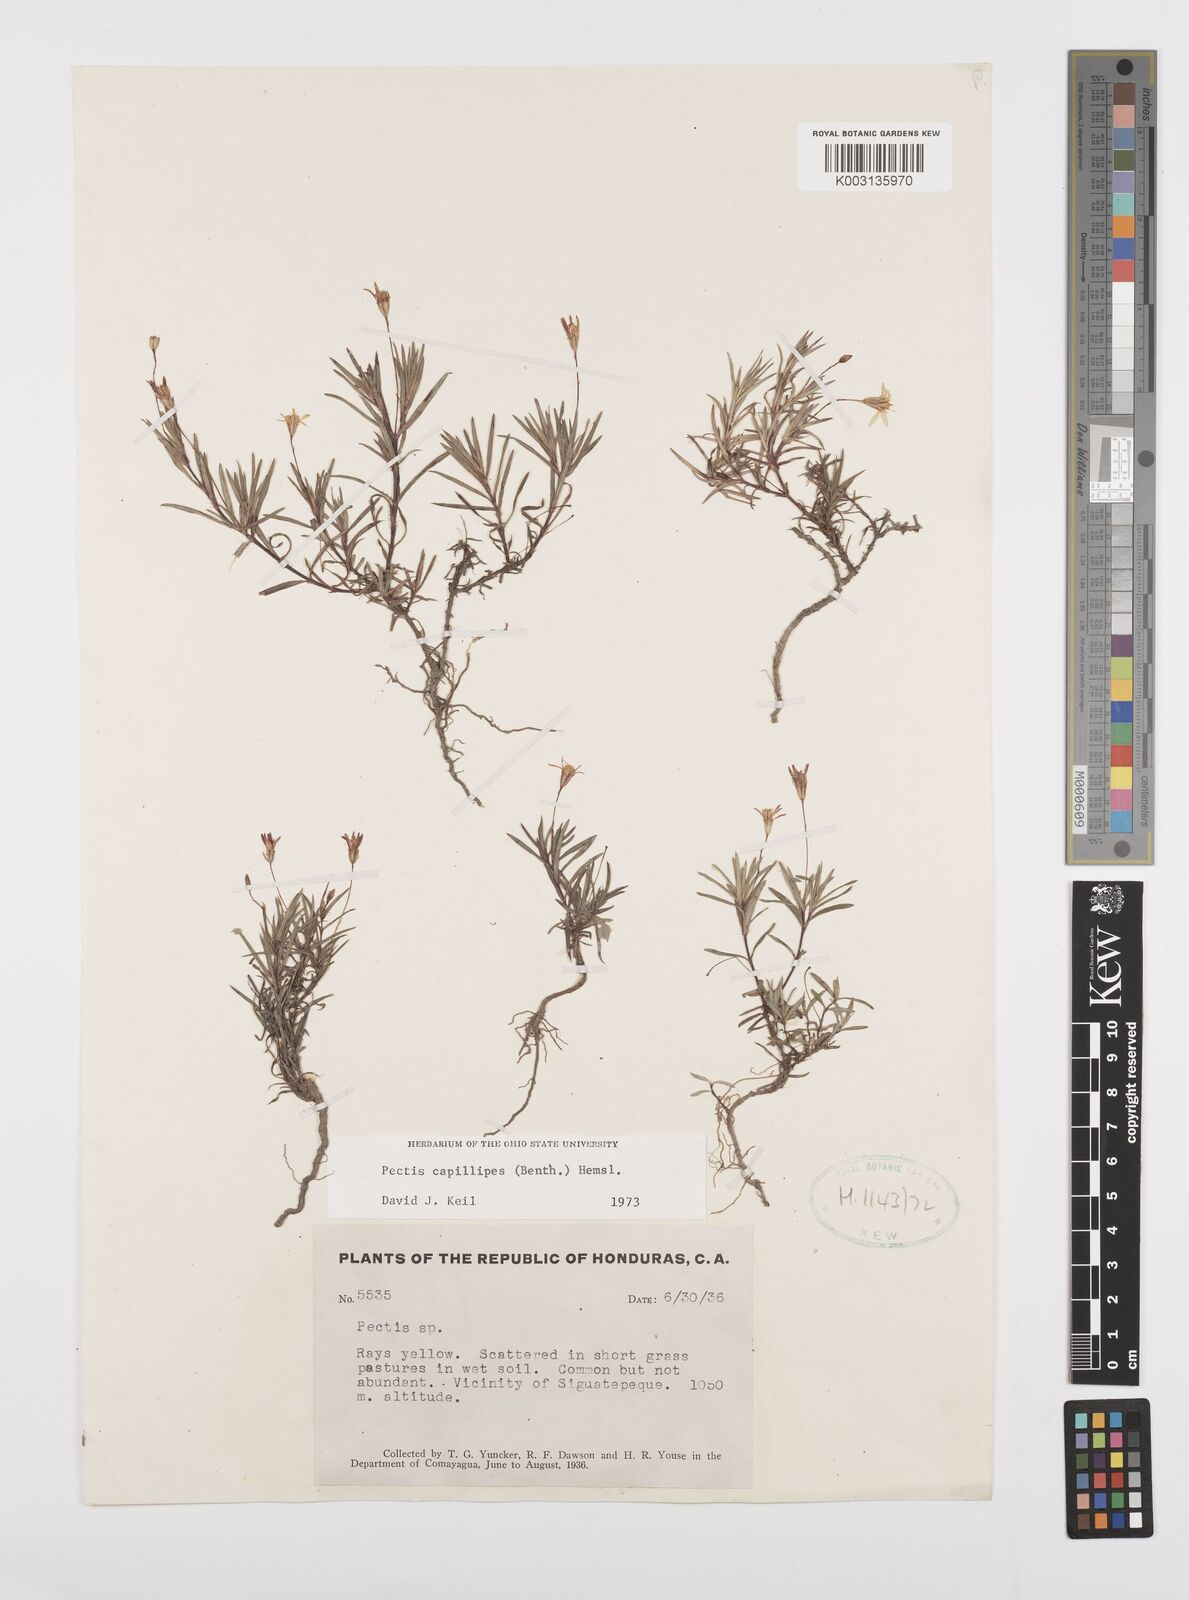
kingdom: Plantae
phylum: Tracheophyta
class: Magnoliopsida
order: Asterales
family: Asteraceae
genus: Pectis
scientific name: Pectis capillipes
